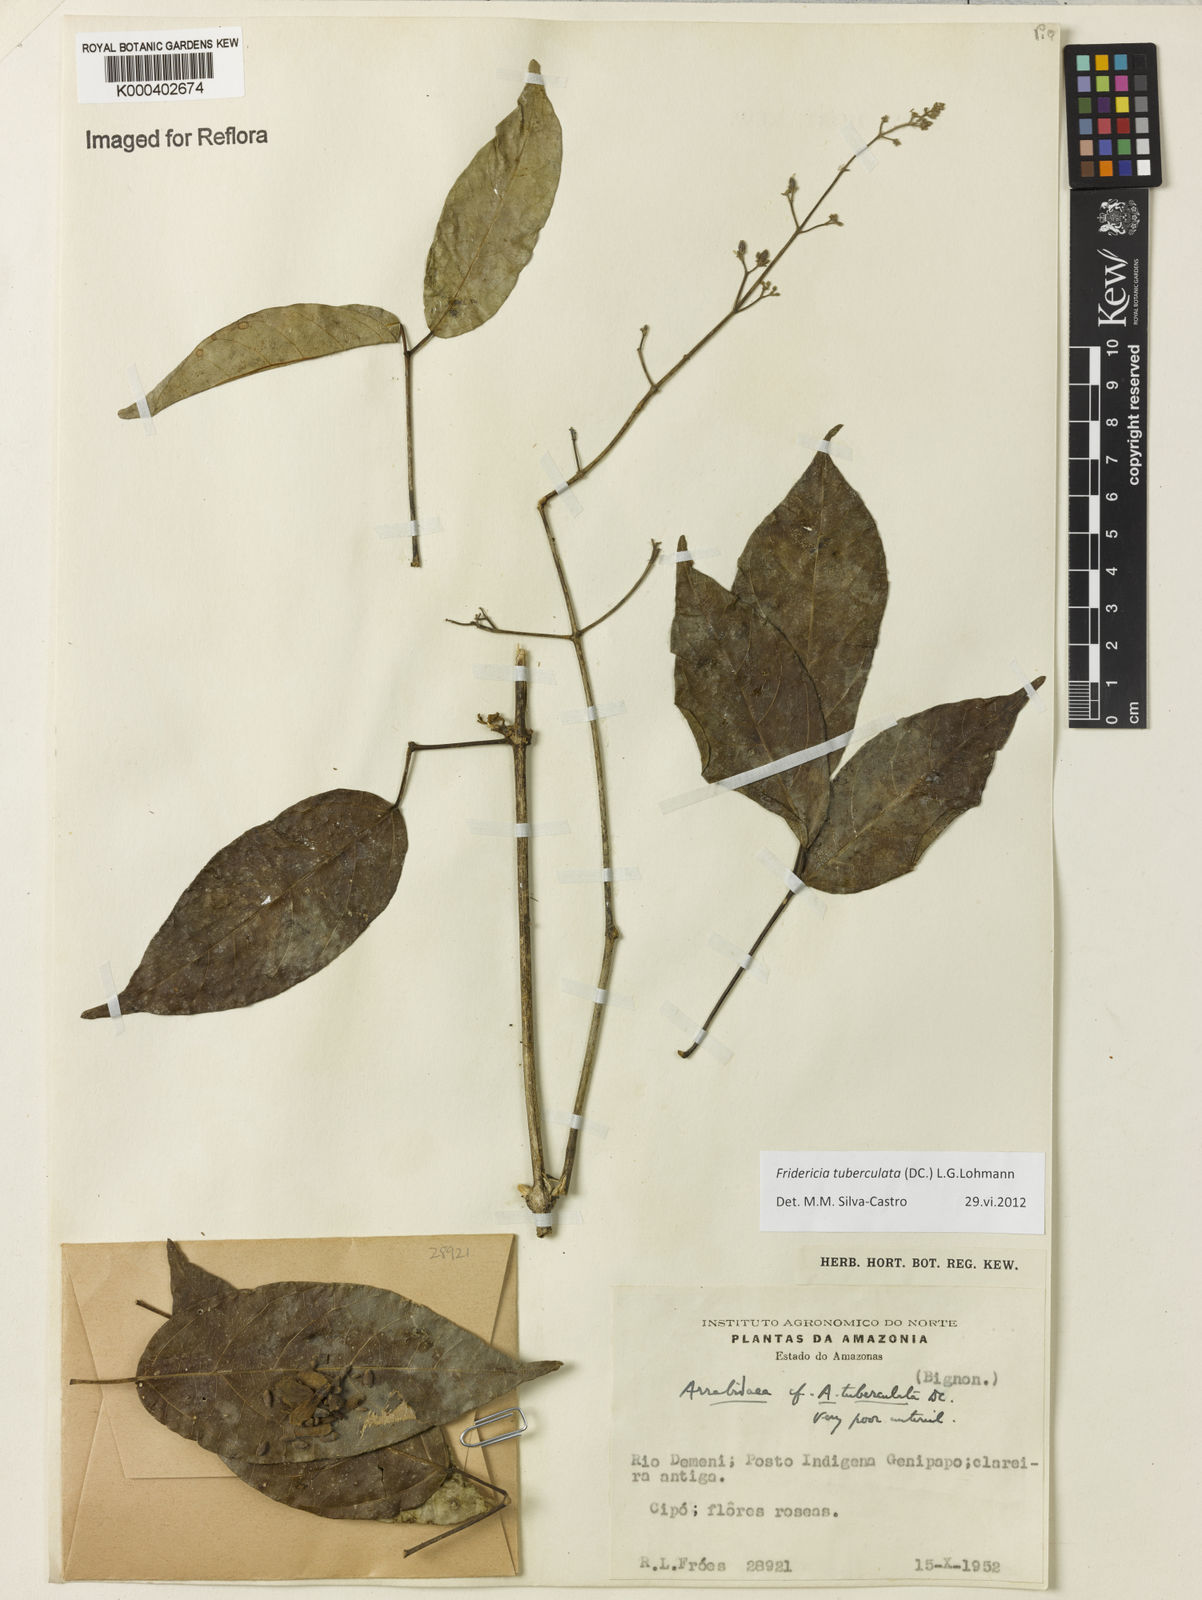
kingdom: Plantae
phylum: Tracheophyta
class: Magnoliopsida
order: Lamiales
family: Bignoniaceae
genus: Fridericia
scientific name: Fridericia tuberculata
